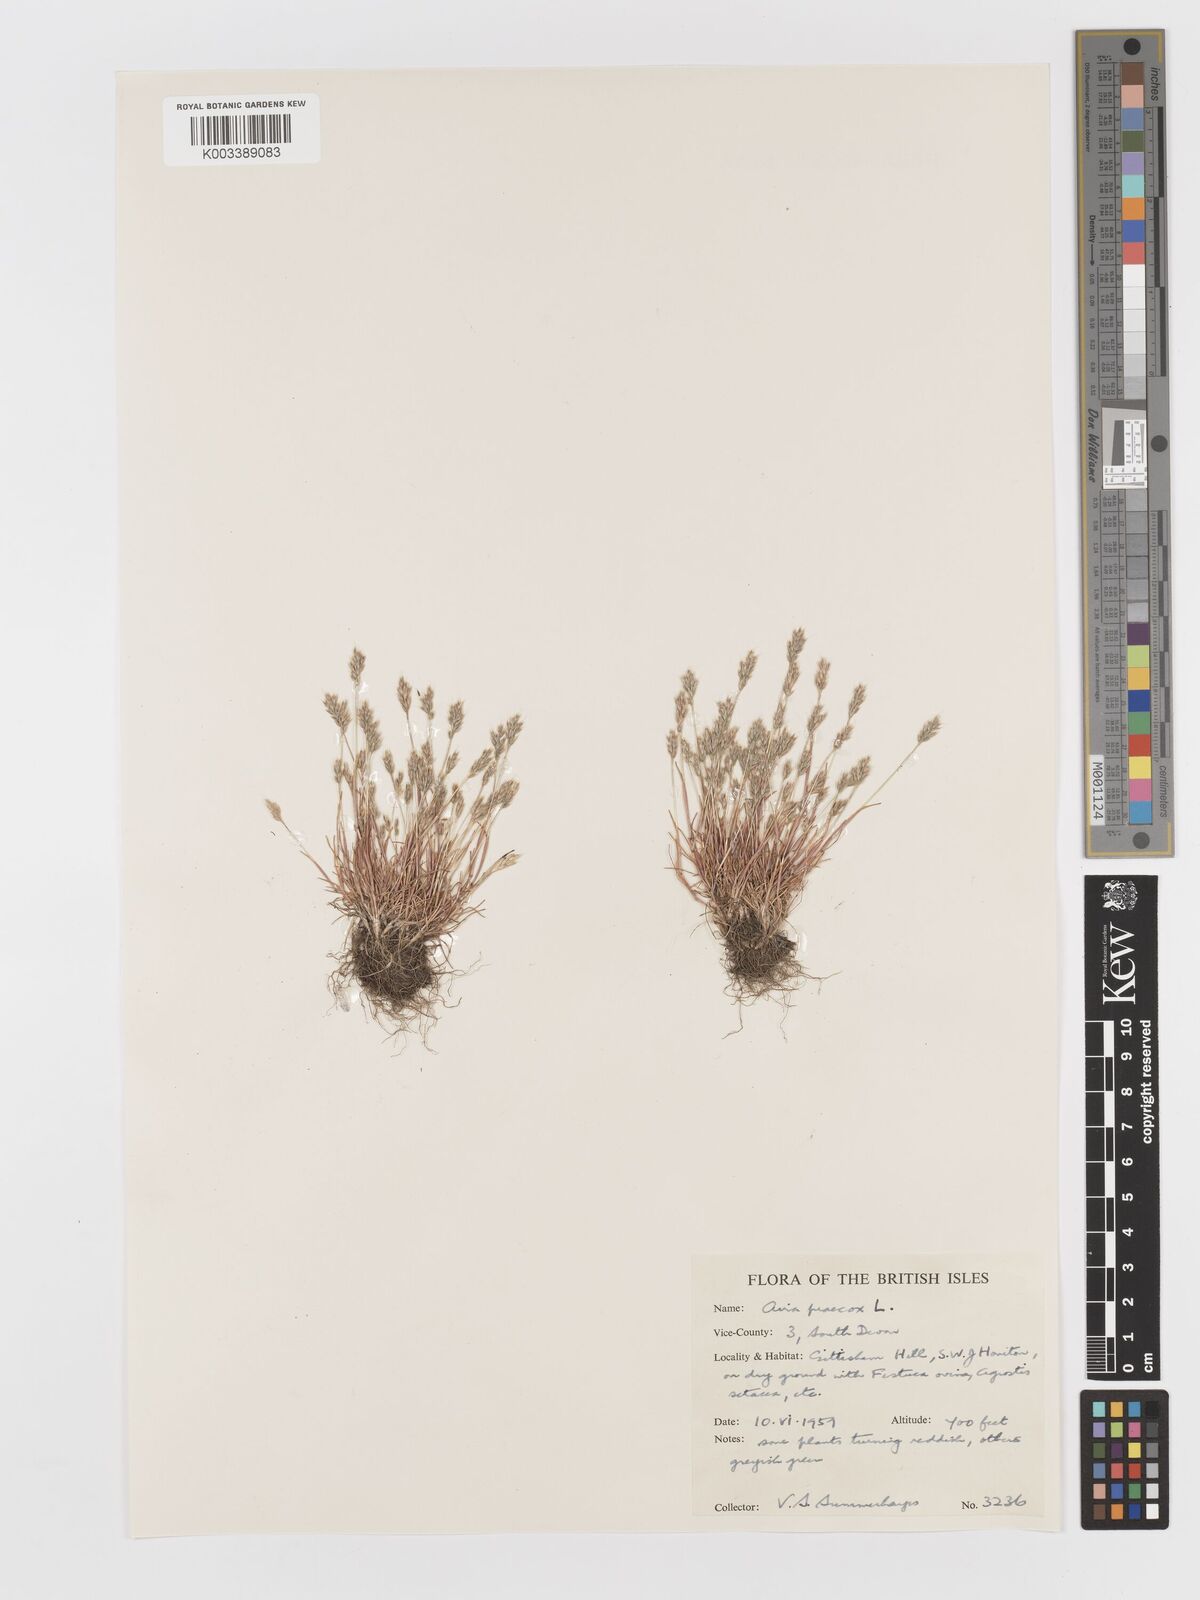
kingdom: Plantae
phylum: Tracheophyta
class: Liliopsida
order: Poales
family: Poaceae
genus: Aira
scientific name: Aira praecox
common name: Early hair-grass
